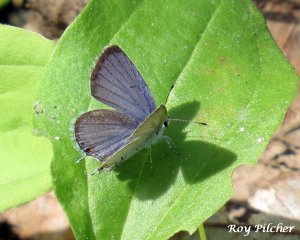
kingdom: Animalia
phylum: Arthropoda
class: Insecta
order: Lepidoptera
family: Lycaenidae
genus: Elkalyce
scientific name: Elkalyce comyntas
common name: Eastern Tailed-Blue
